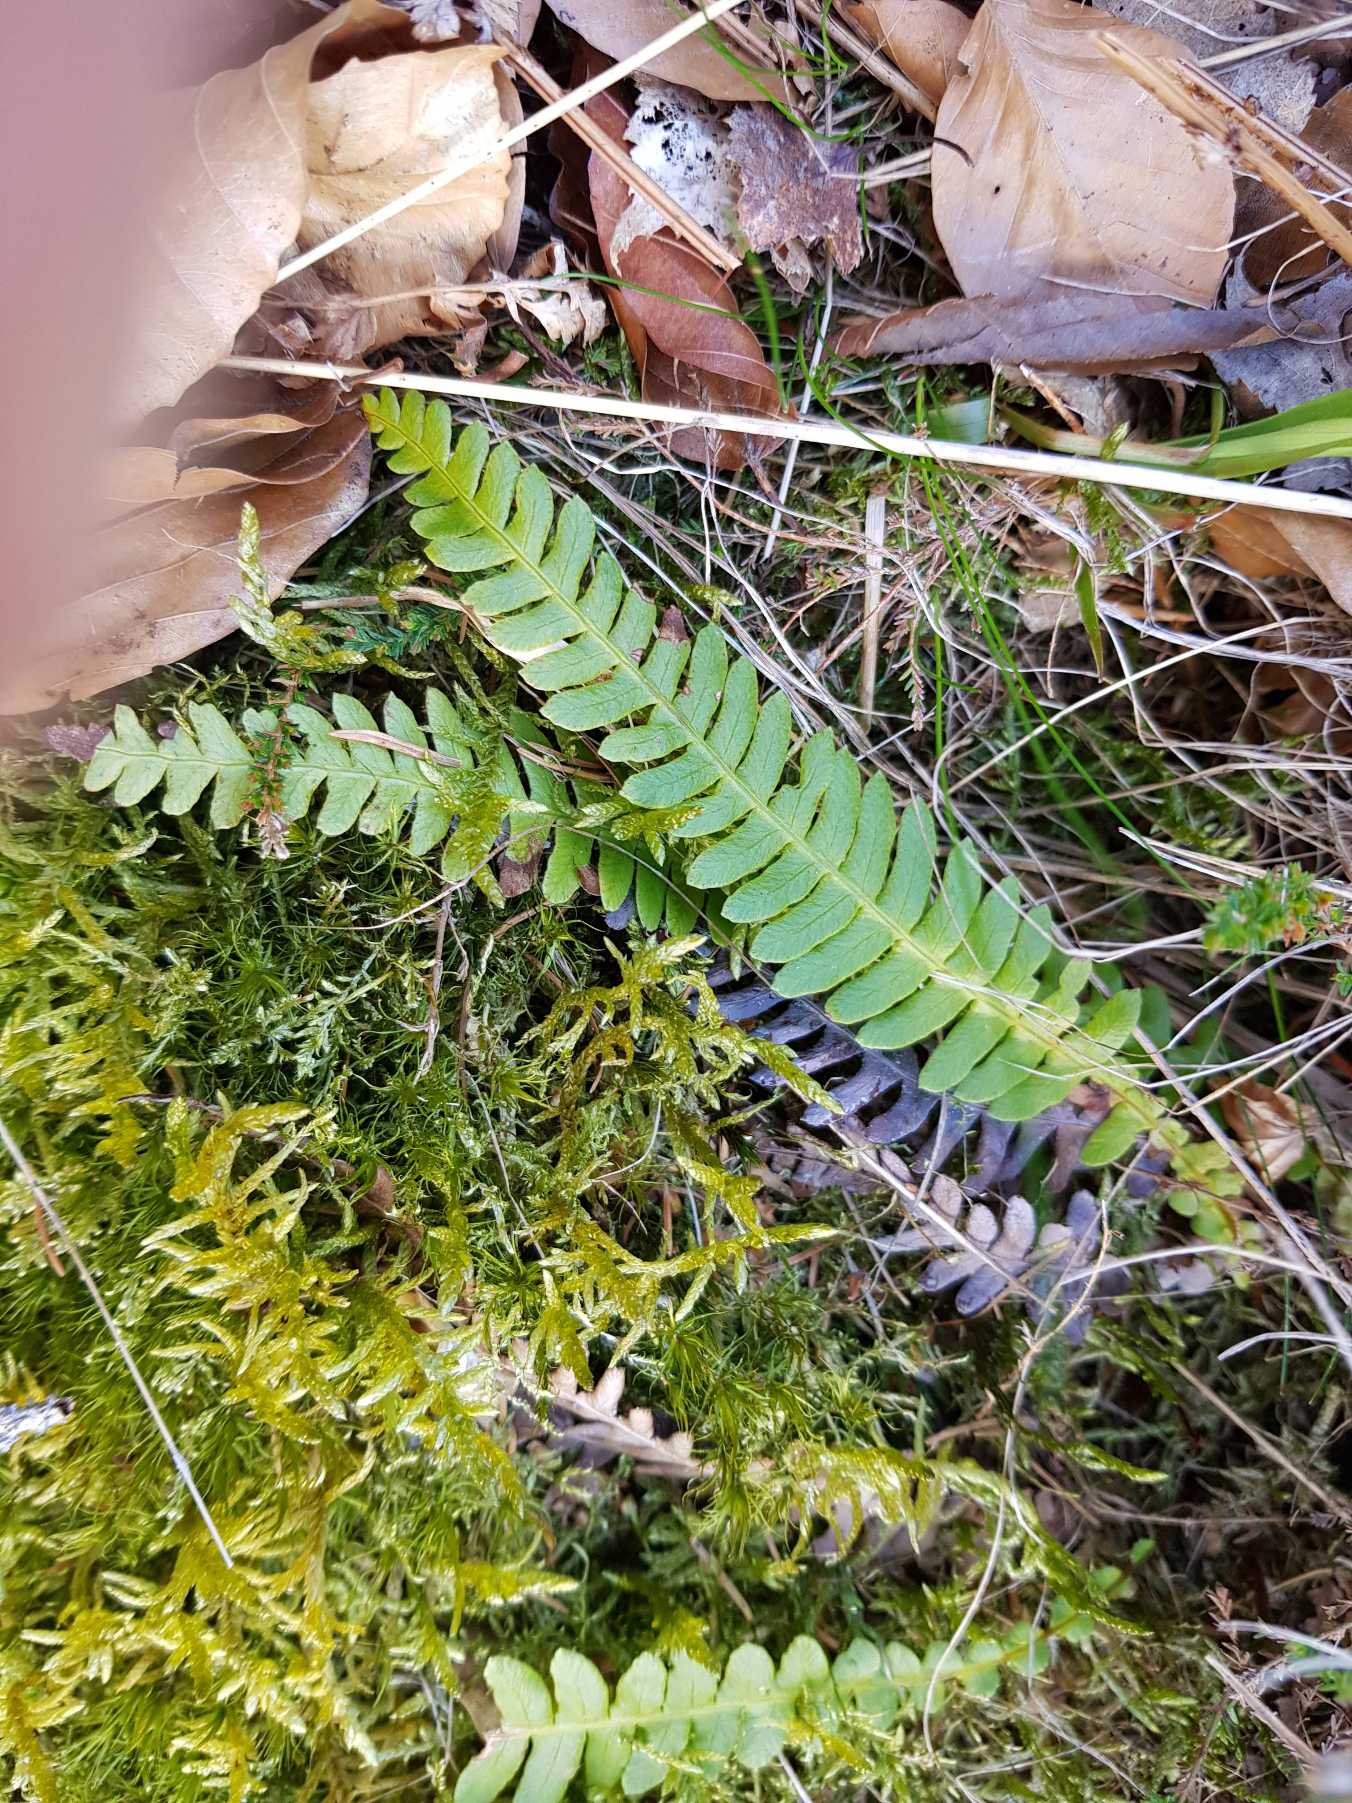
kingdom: Plantae
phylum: Tracheophyta
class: Polypodiopsida
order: Polypodiales
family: Blechnaceae
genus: Struthiopteris
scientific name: Struthiopteris spicant
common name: Kambregne
